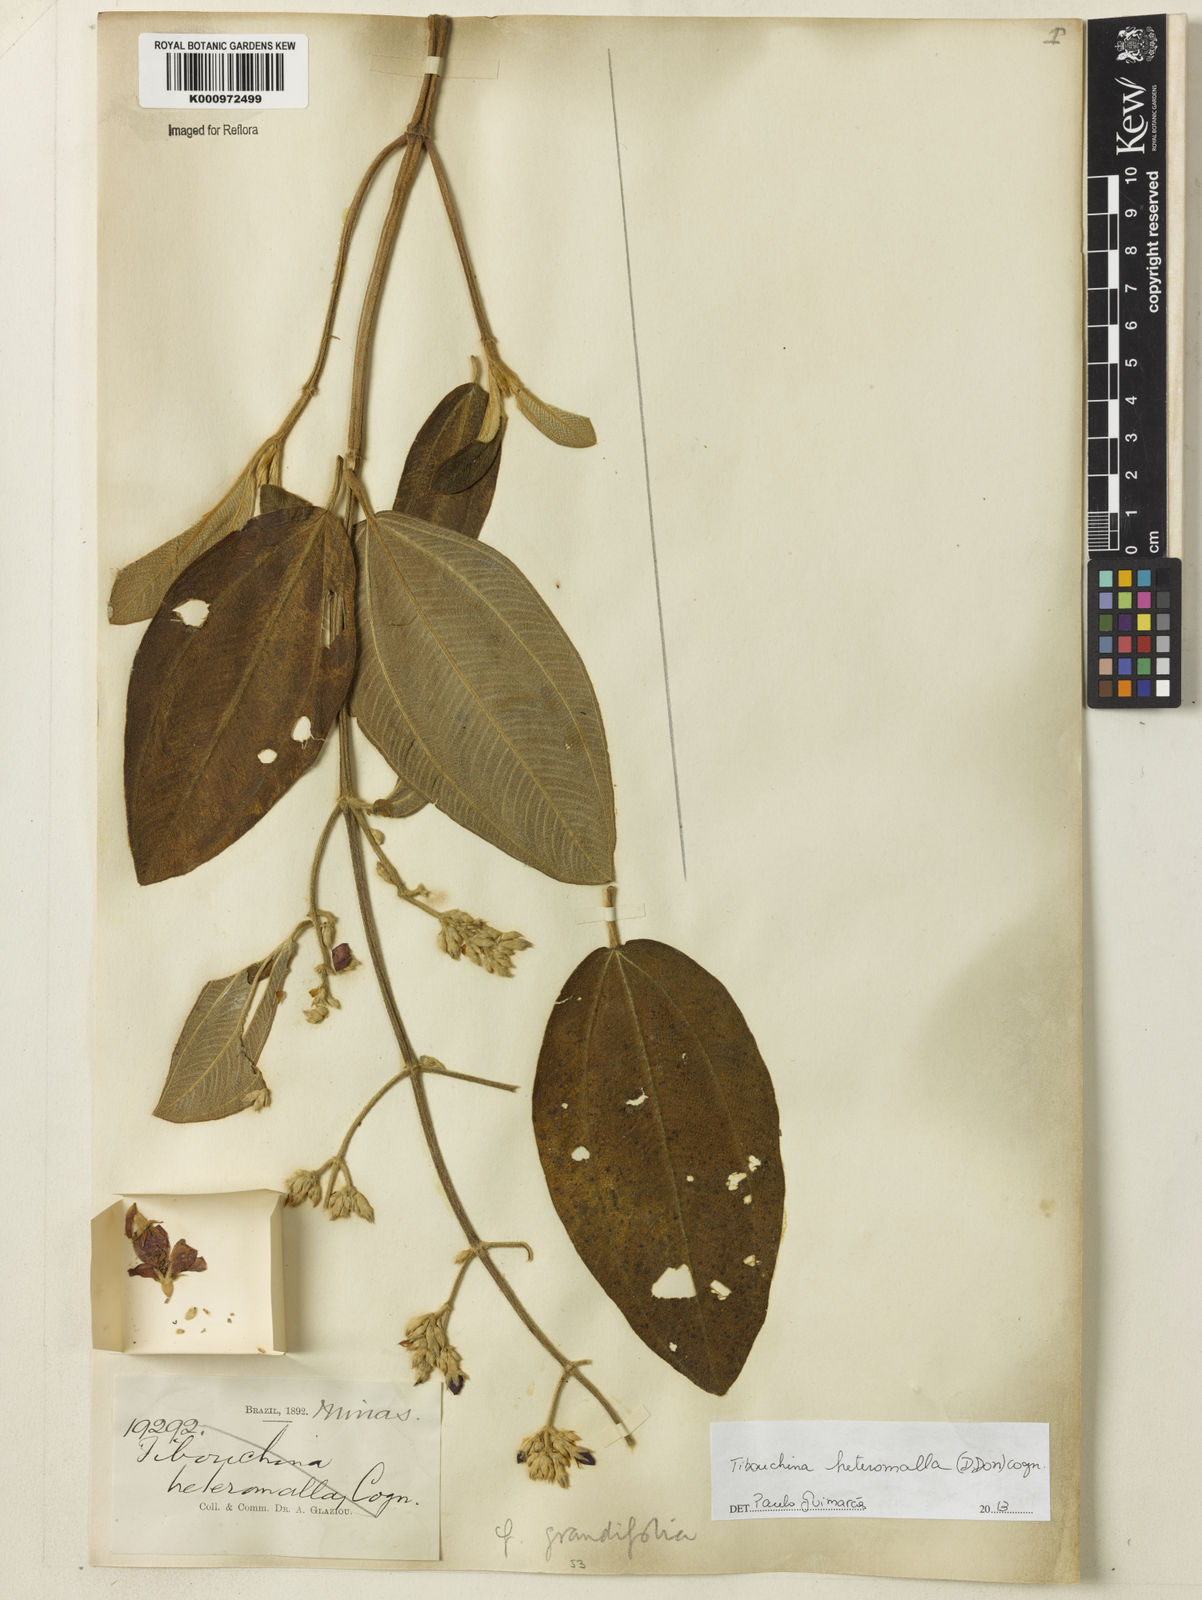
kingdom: Plantae
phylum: Tracheophyta
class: Magnoliopsida
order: Myrtales
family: Melastomataceae
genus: Pleroma
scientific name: Pleroma heteromallum
